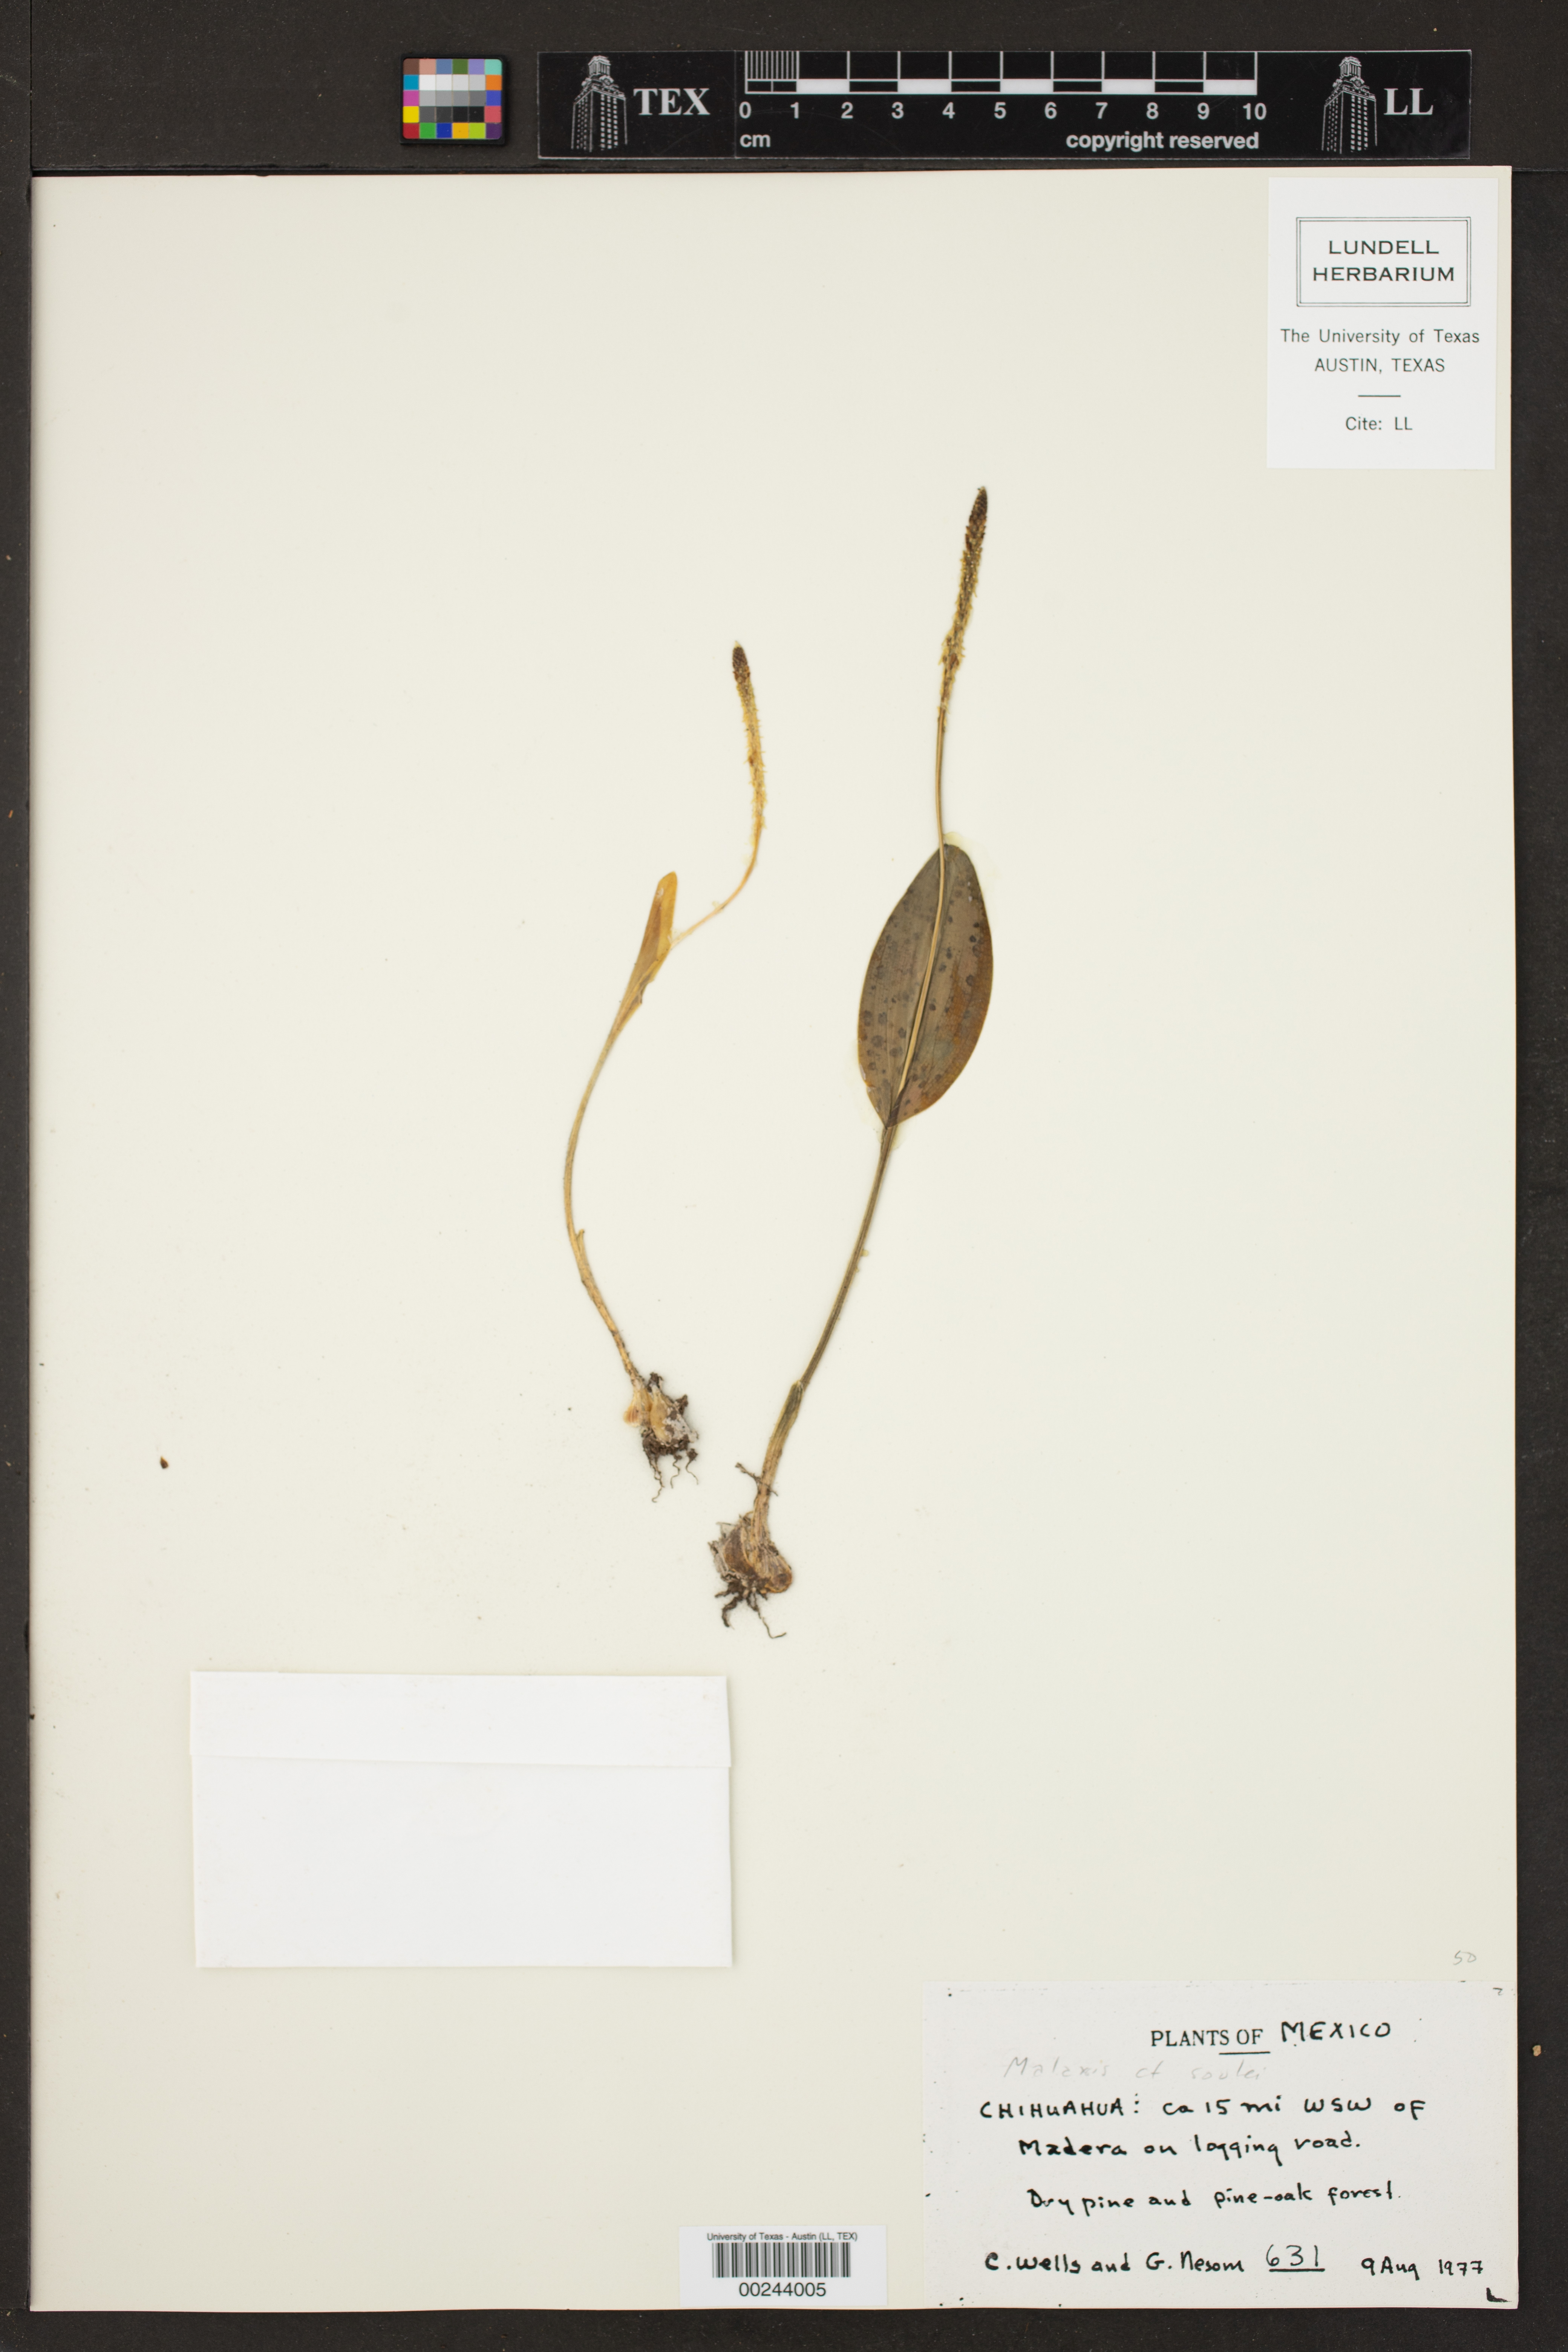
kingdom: Plantae
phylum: Tracheophyta
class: Liliopsida
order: Asparagales
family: Orchidaceae
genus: Malaxis
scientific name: Malaxis macrostachya
